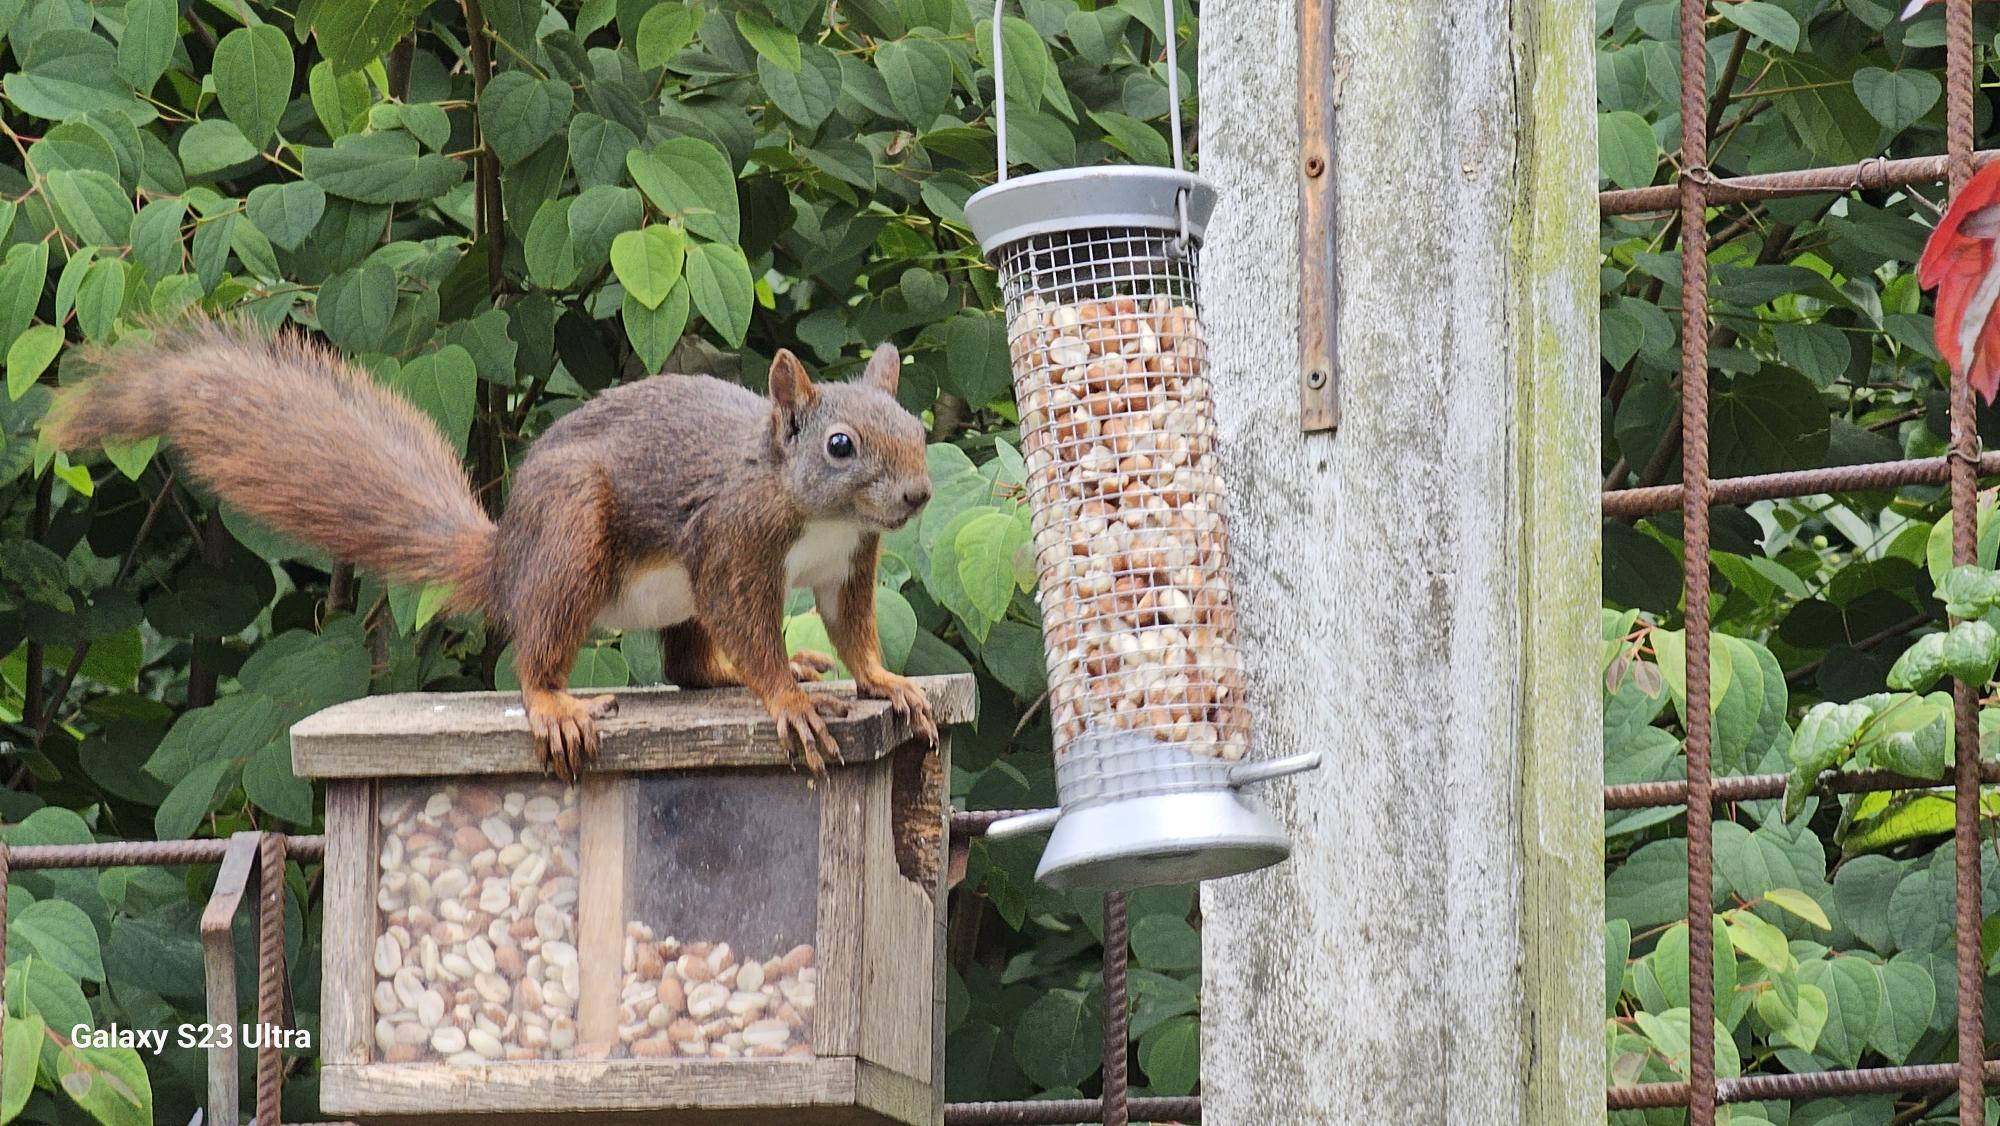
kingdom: Animalia
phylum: Chordata
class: Mammalia
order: Rodentia
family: Sciuridae
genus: Sciurus
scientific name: Sciurus vulgaris
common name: Egern
